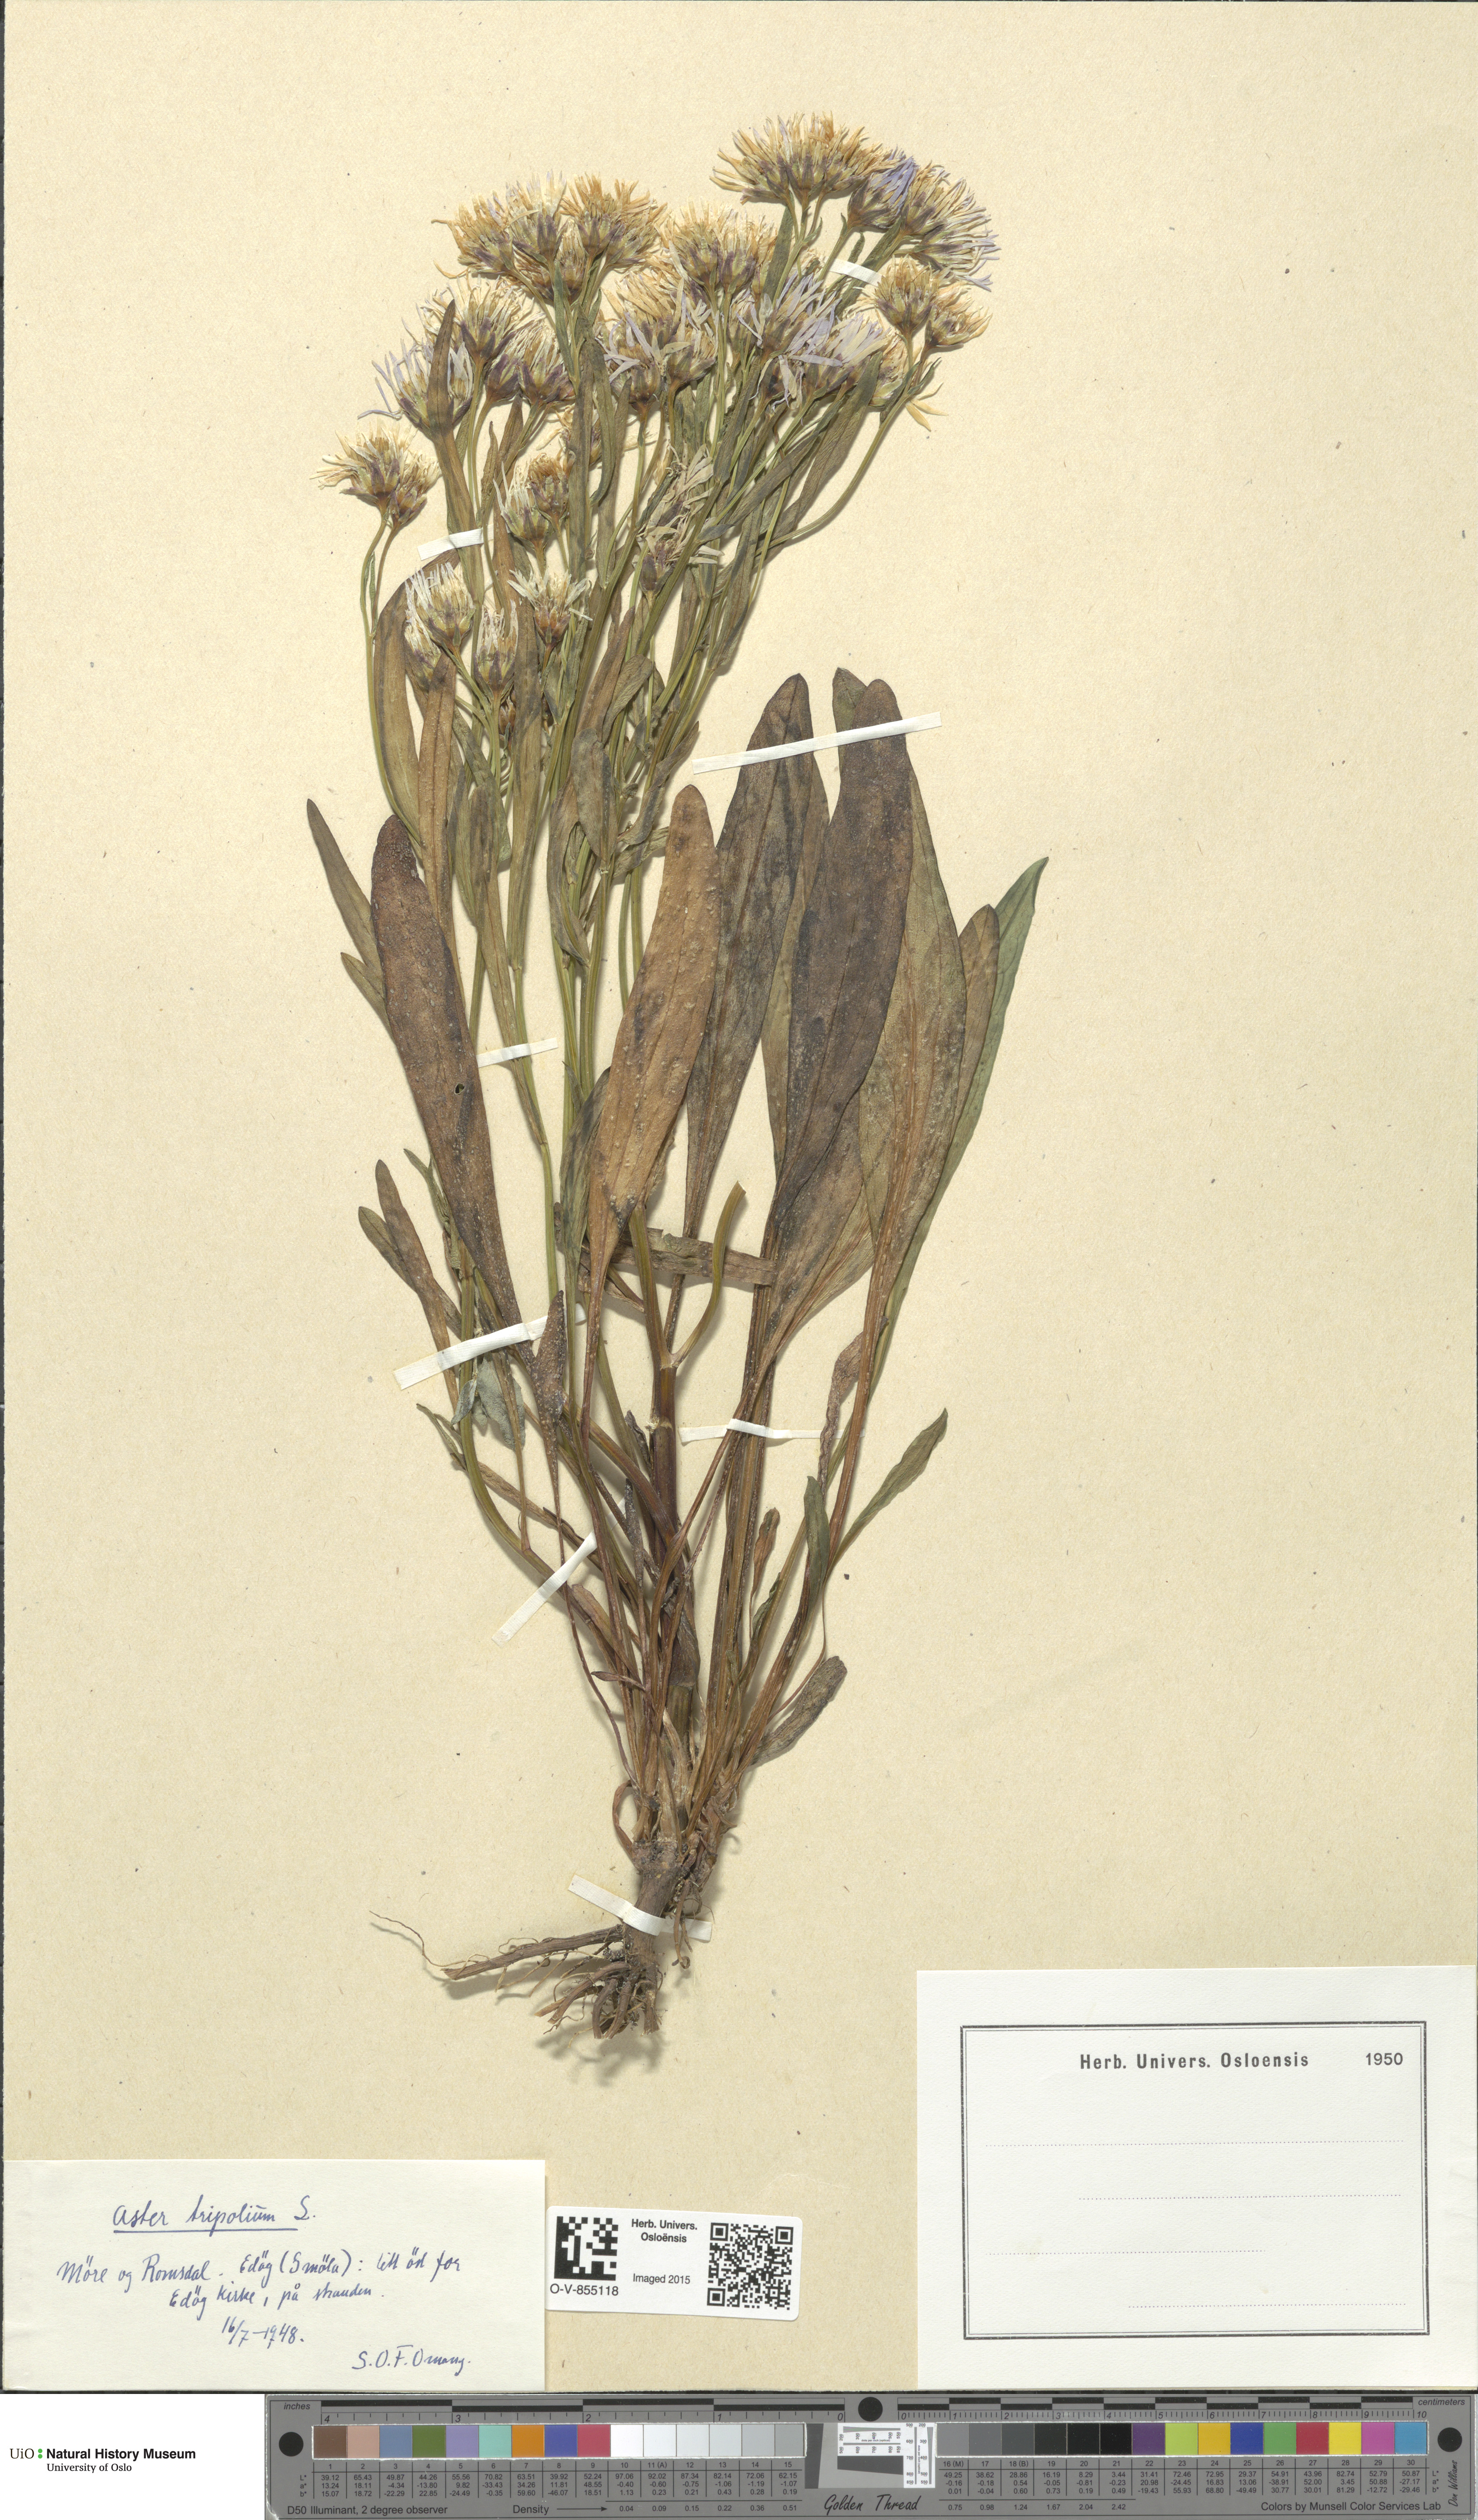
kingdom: Plantae
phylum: Tracheophyta
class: Magnoliopsida
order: Asterales
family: Asteraceae
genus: Tripolium
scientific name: Tripolium pannonicum
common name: Sea aster
